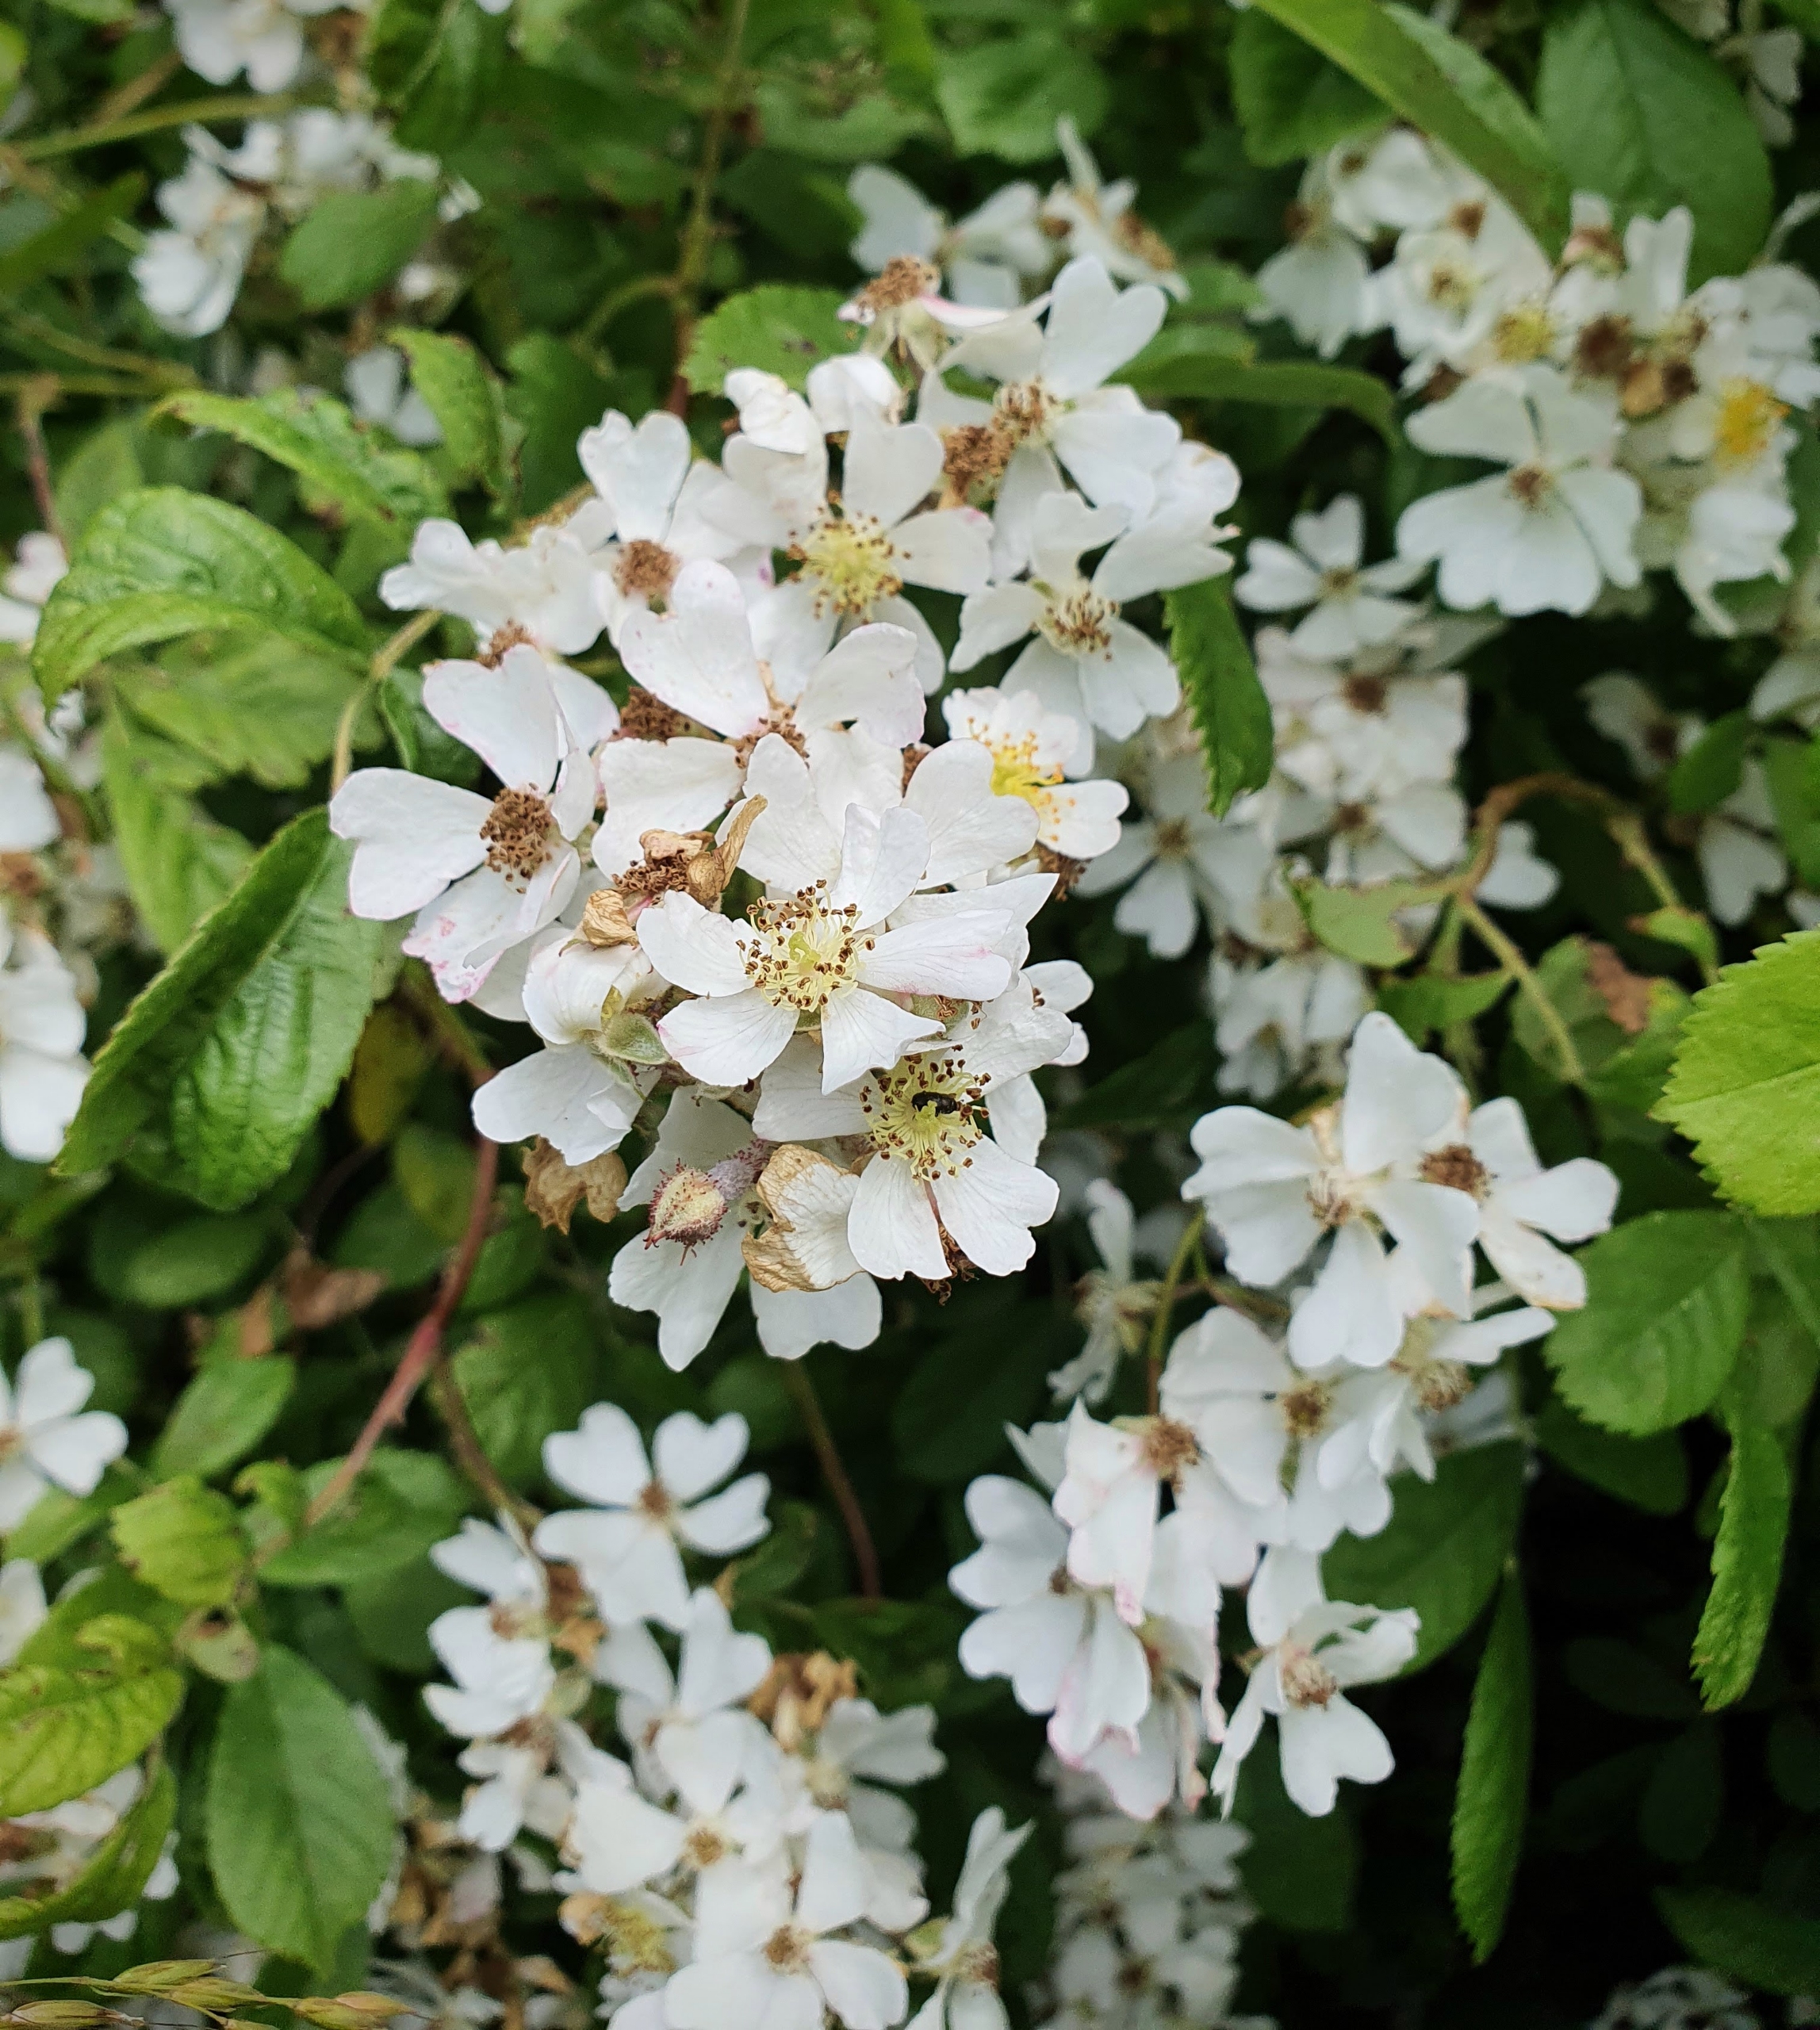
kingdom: Plantae
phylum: Tracheophyta
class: Magnoliopsida
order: Rosales
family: Rosaceae
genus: Rosa
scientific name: Rosa multiflora
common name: Mangeblomstret rose
